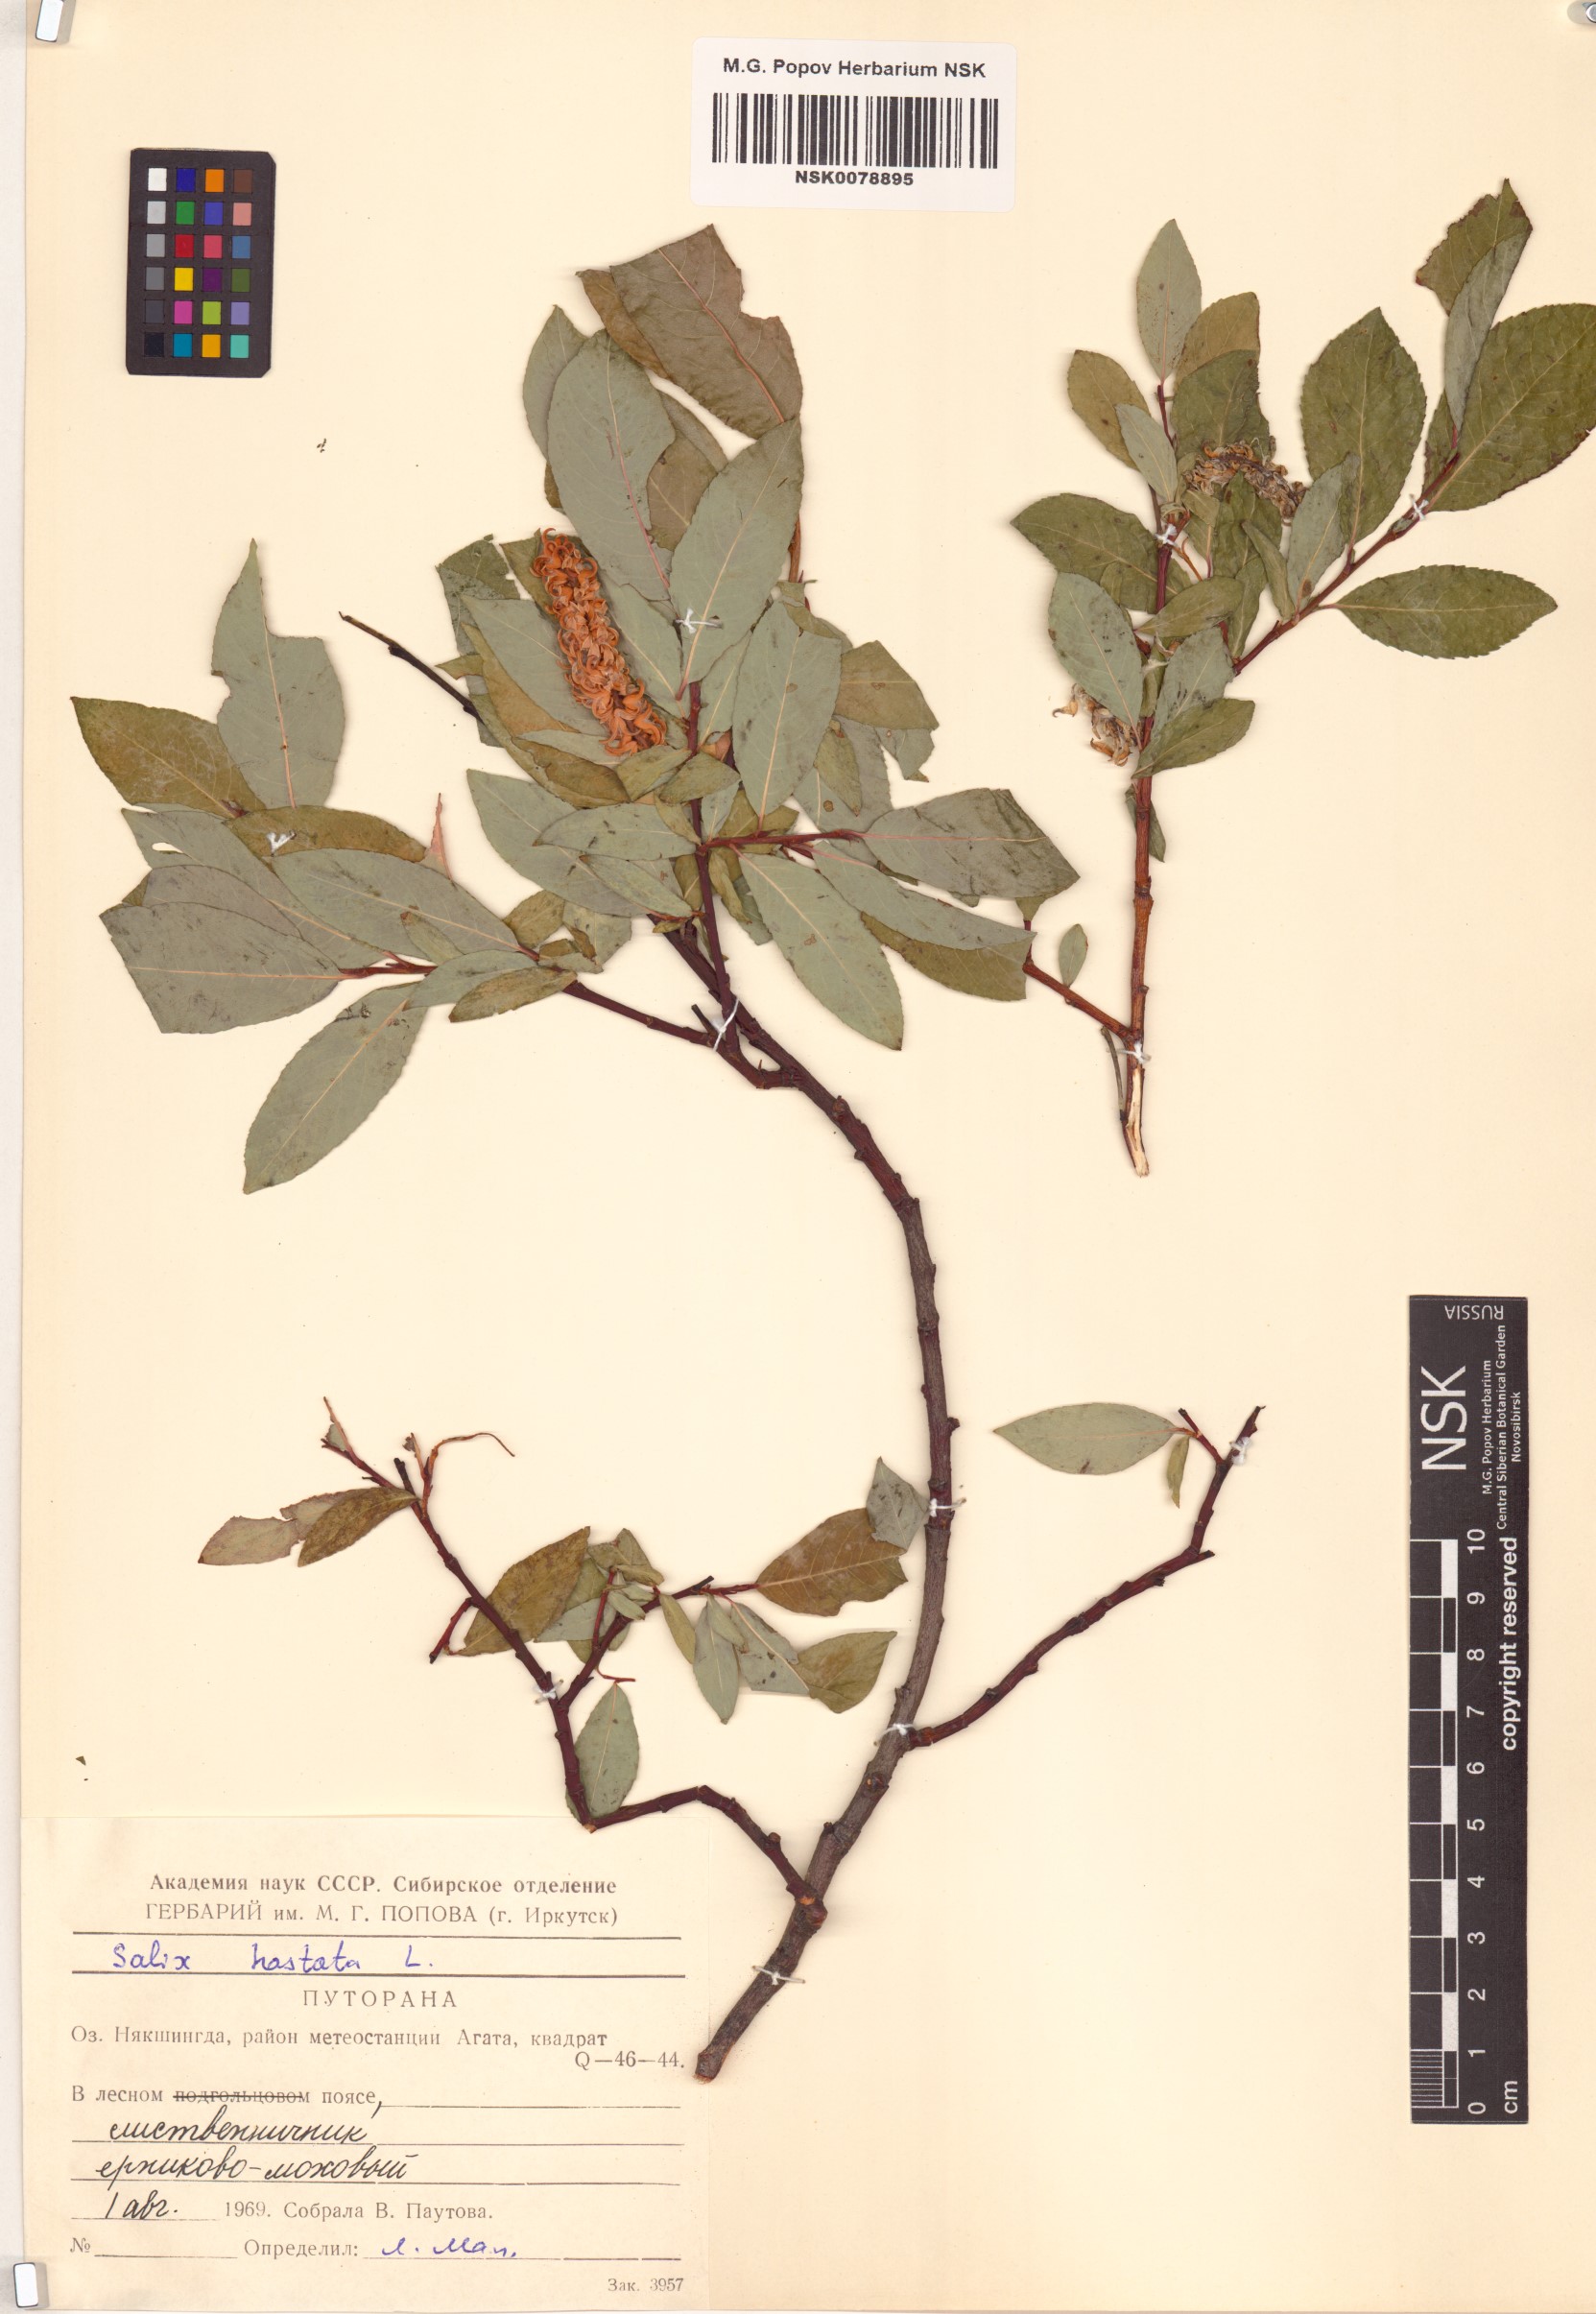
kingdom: Plantae
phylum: Tracheophyta
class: Magnoliopsida
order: Malpighiales
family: Salicaceae
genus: Salix
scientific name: Salix hastata
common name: Halberd willow
